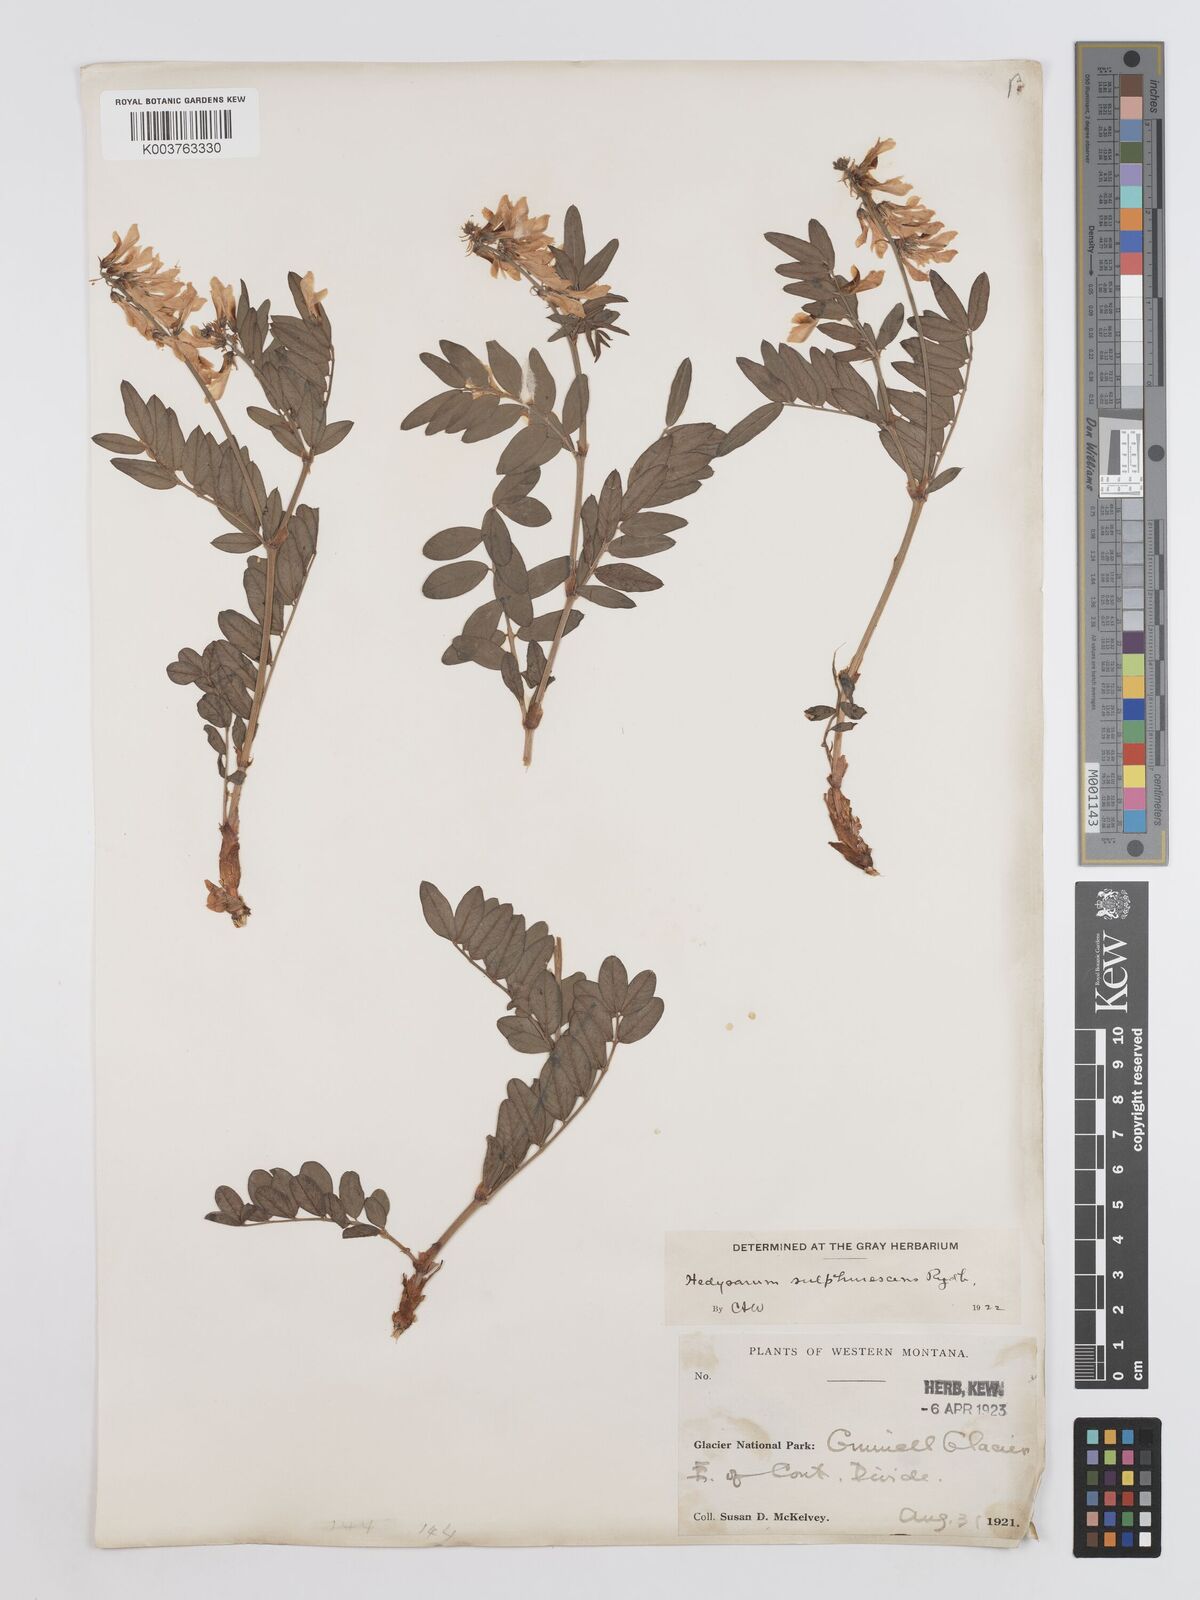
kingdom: Plantae
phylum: Tracheophyta
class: Magnoliopsida
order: Fabales
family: Fabaceae
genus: Hedysarum
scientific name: Hedysarum sulphurescens
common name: Sulphur hedysarum
